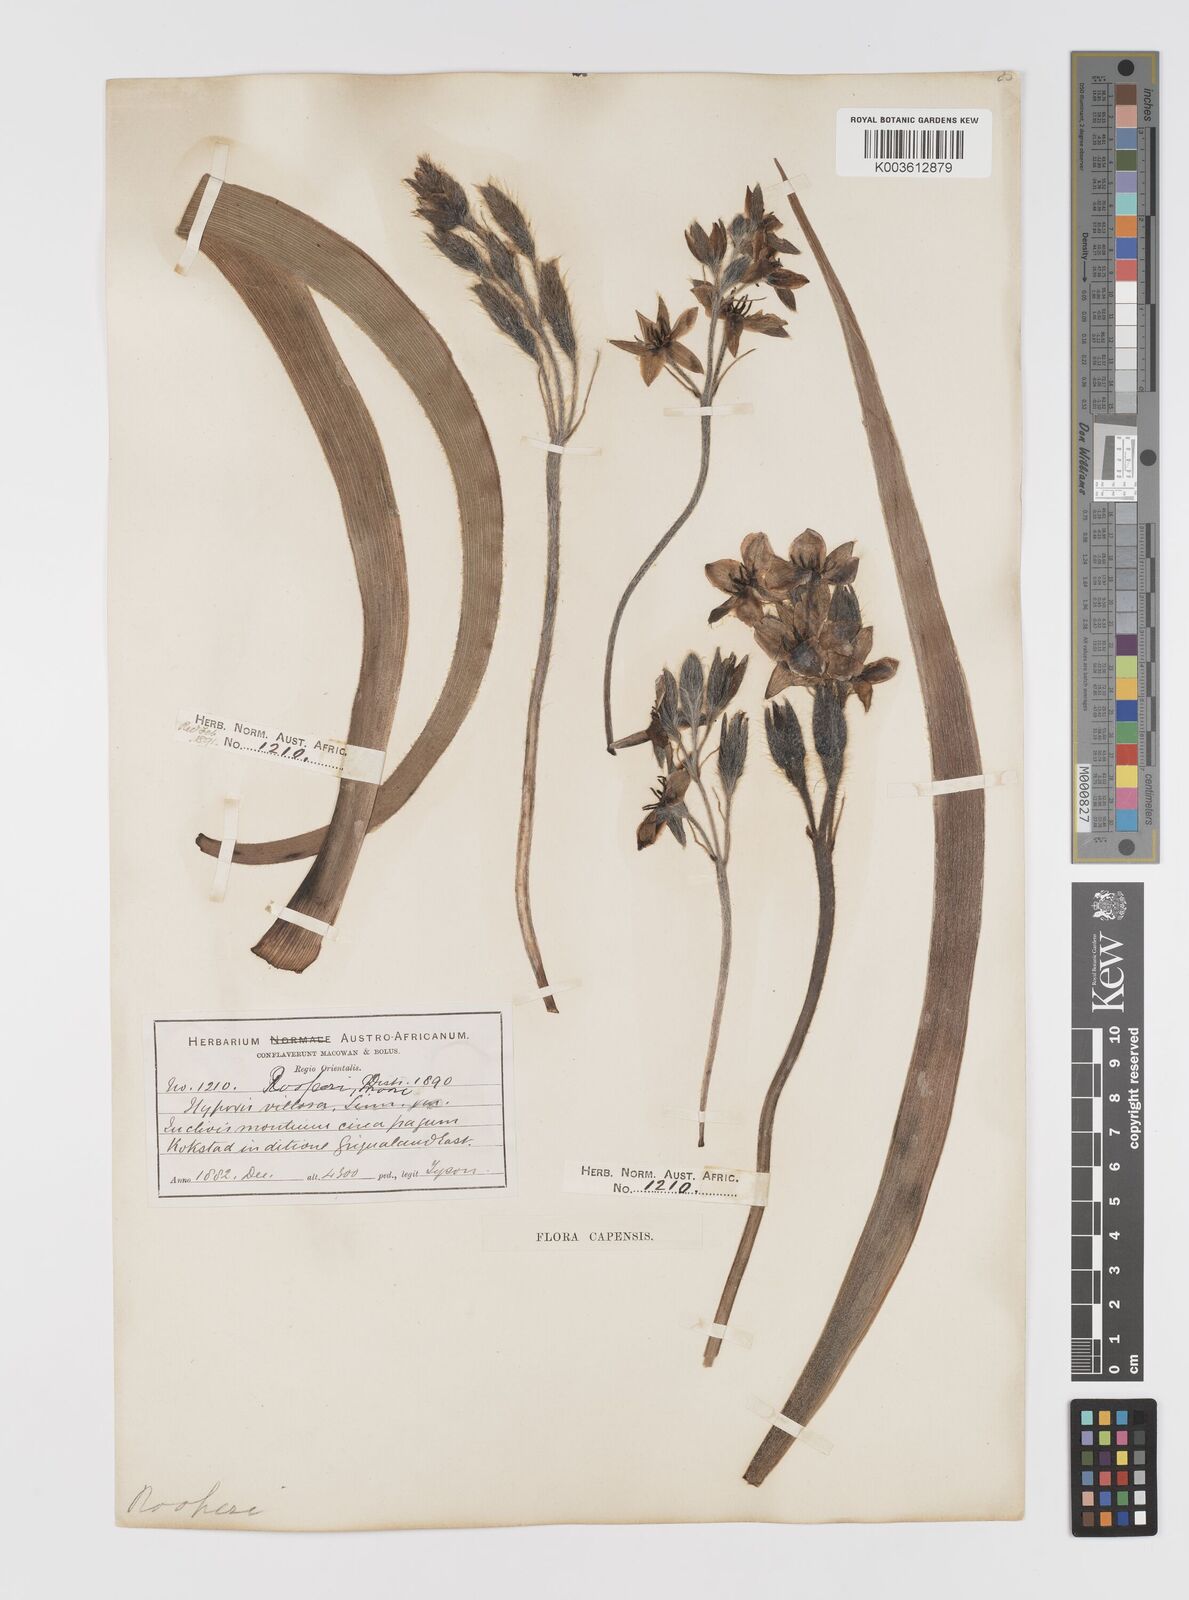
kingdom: Plantae
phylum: Tracheophyta
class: Liliopsida
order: Asparagales
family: Hypoxidaceae
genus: Hypoxis
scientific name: Hypoxis hemerocallidea
